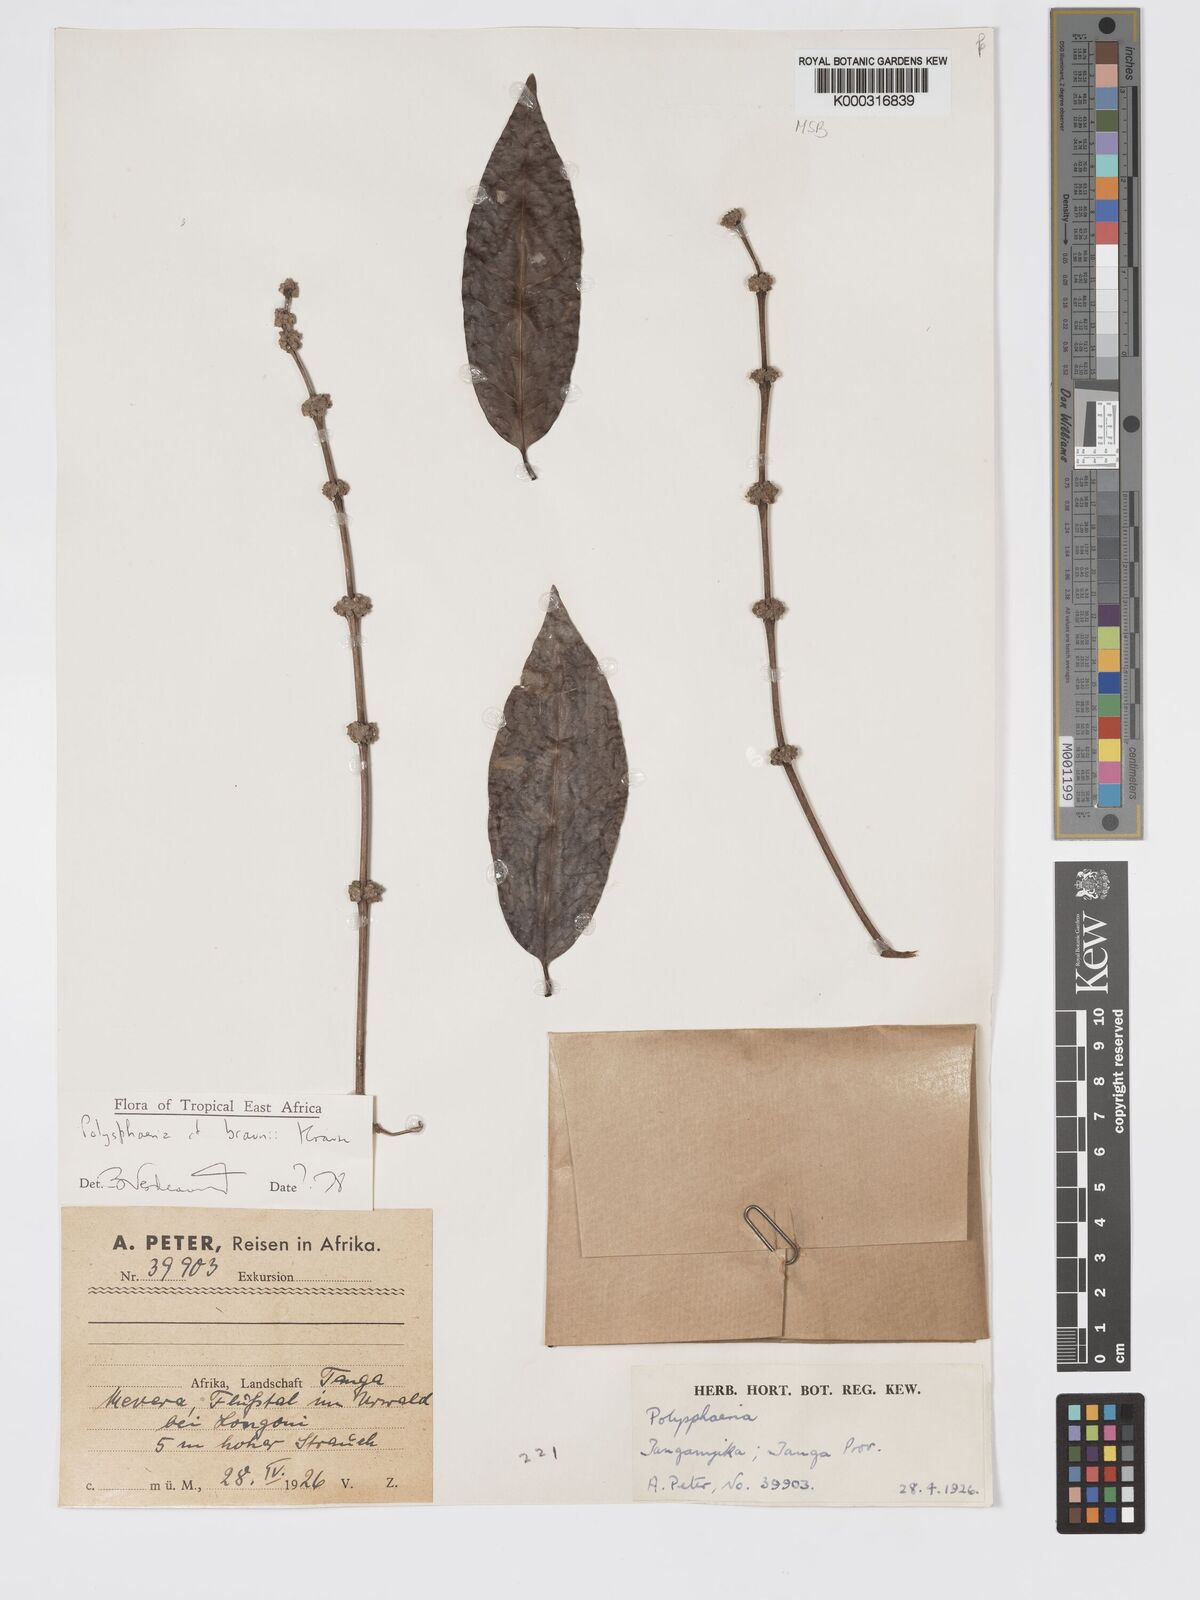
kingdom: Plantae
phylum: Tracheophyta
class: Magnoliopsida
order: Gentianales
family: Rubiaceae
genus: Polysphaeria
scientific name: Polysphaeria braunii
